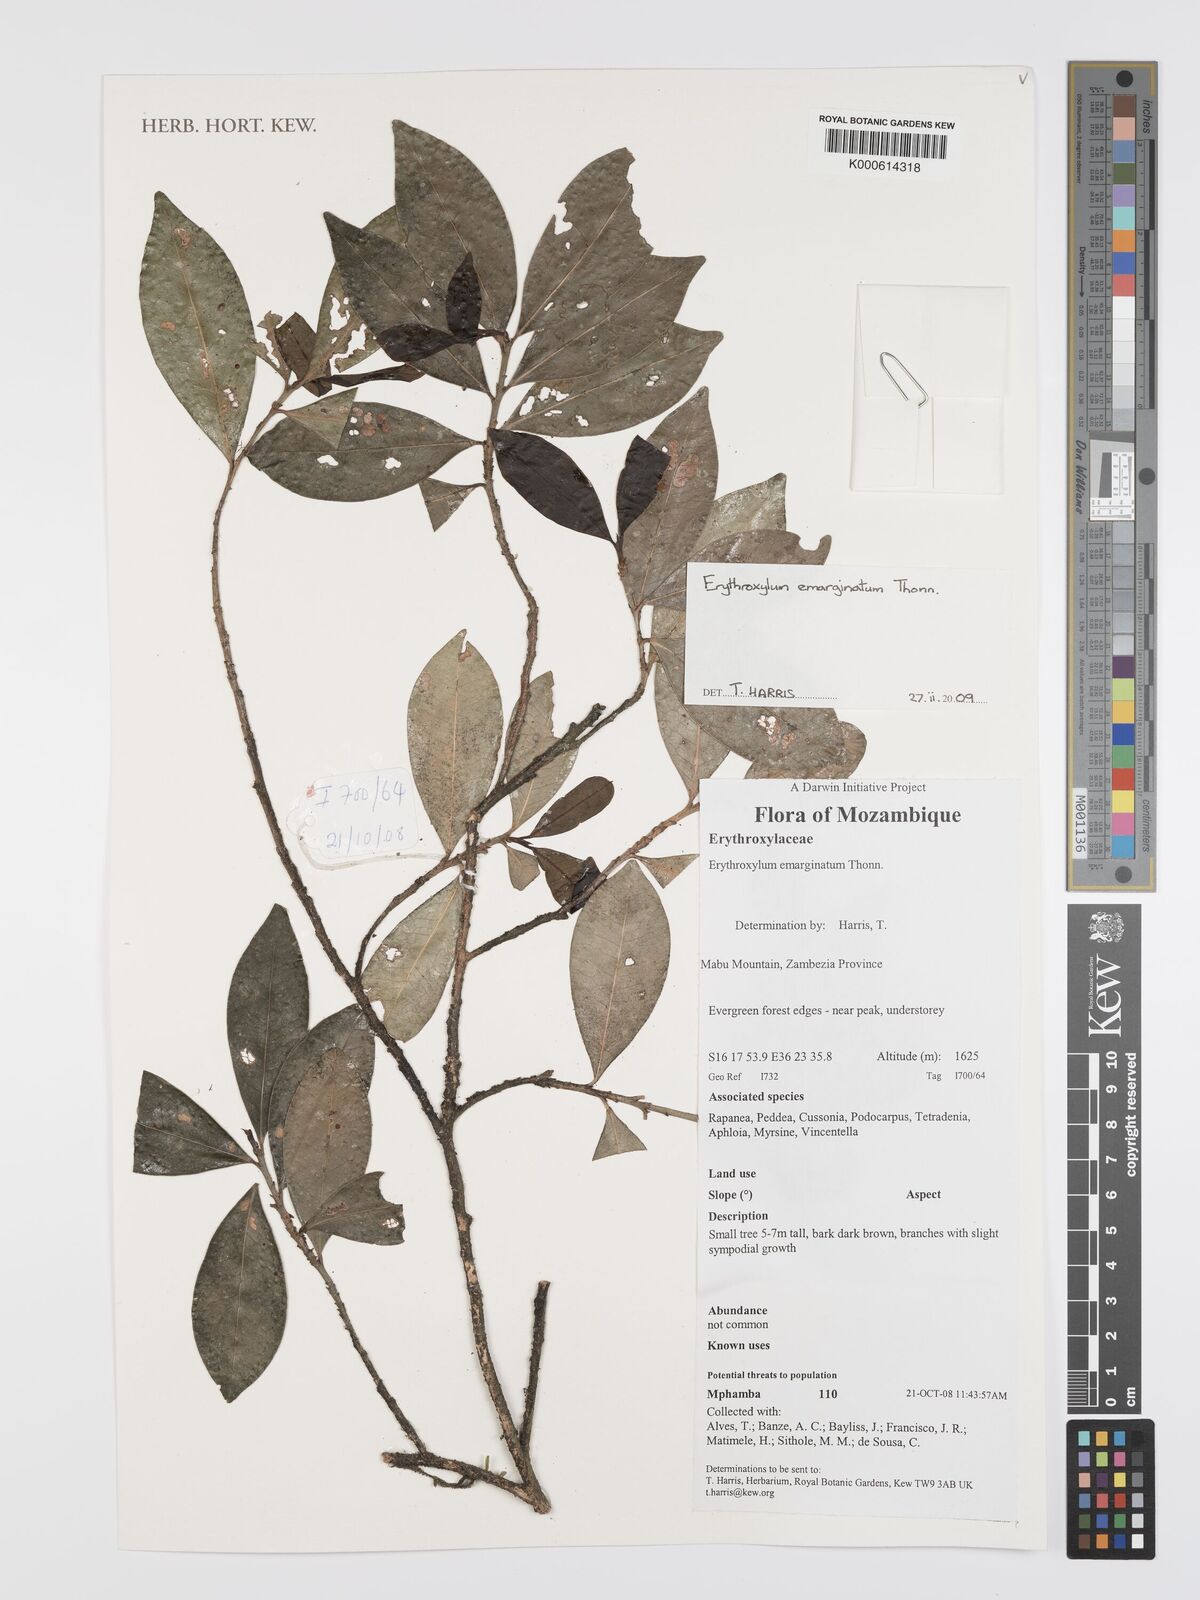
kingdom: Plantae
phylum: Tracheophyta
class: Magnoliopsida
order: Malpighiales
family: Erythroxylaceae
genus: Erythroxylum
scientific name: Erythroxylum emarginatum
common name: African coca-tree
